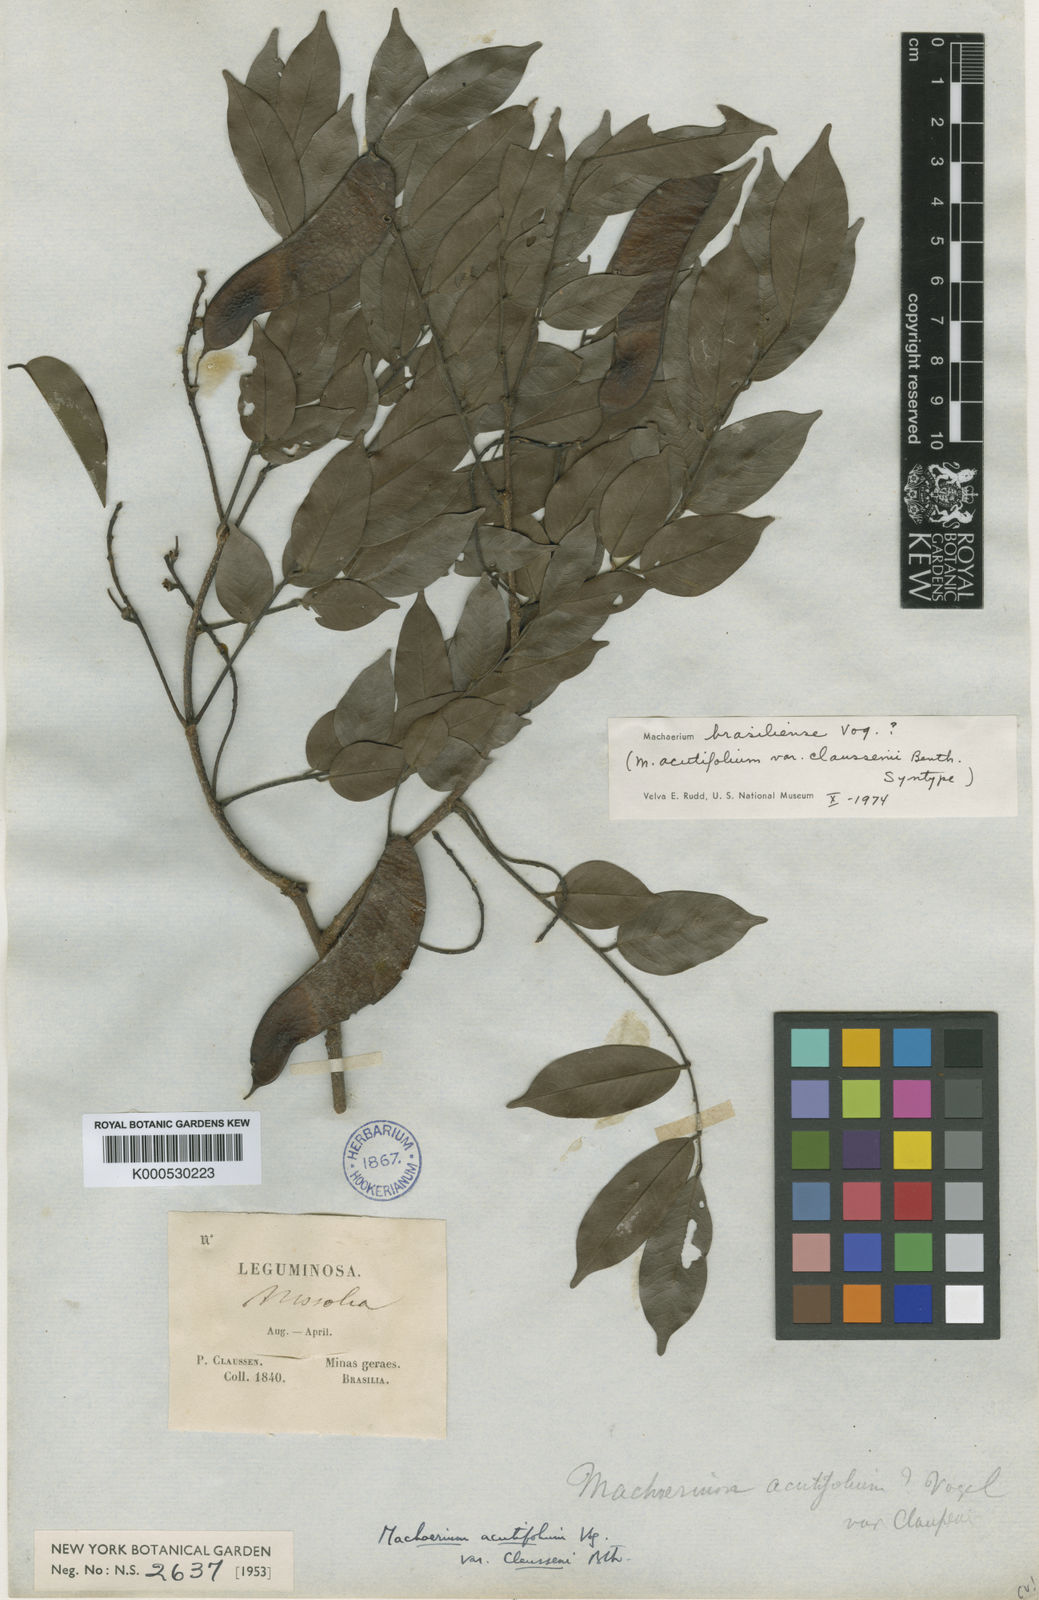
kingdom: Plantae
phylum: Tracheophyta
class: Magnoliopsida
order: Fabales
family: Fabaceae
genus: Machaerium
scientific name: Machaerium acutifolium
